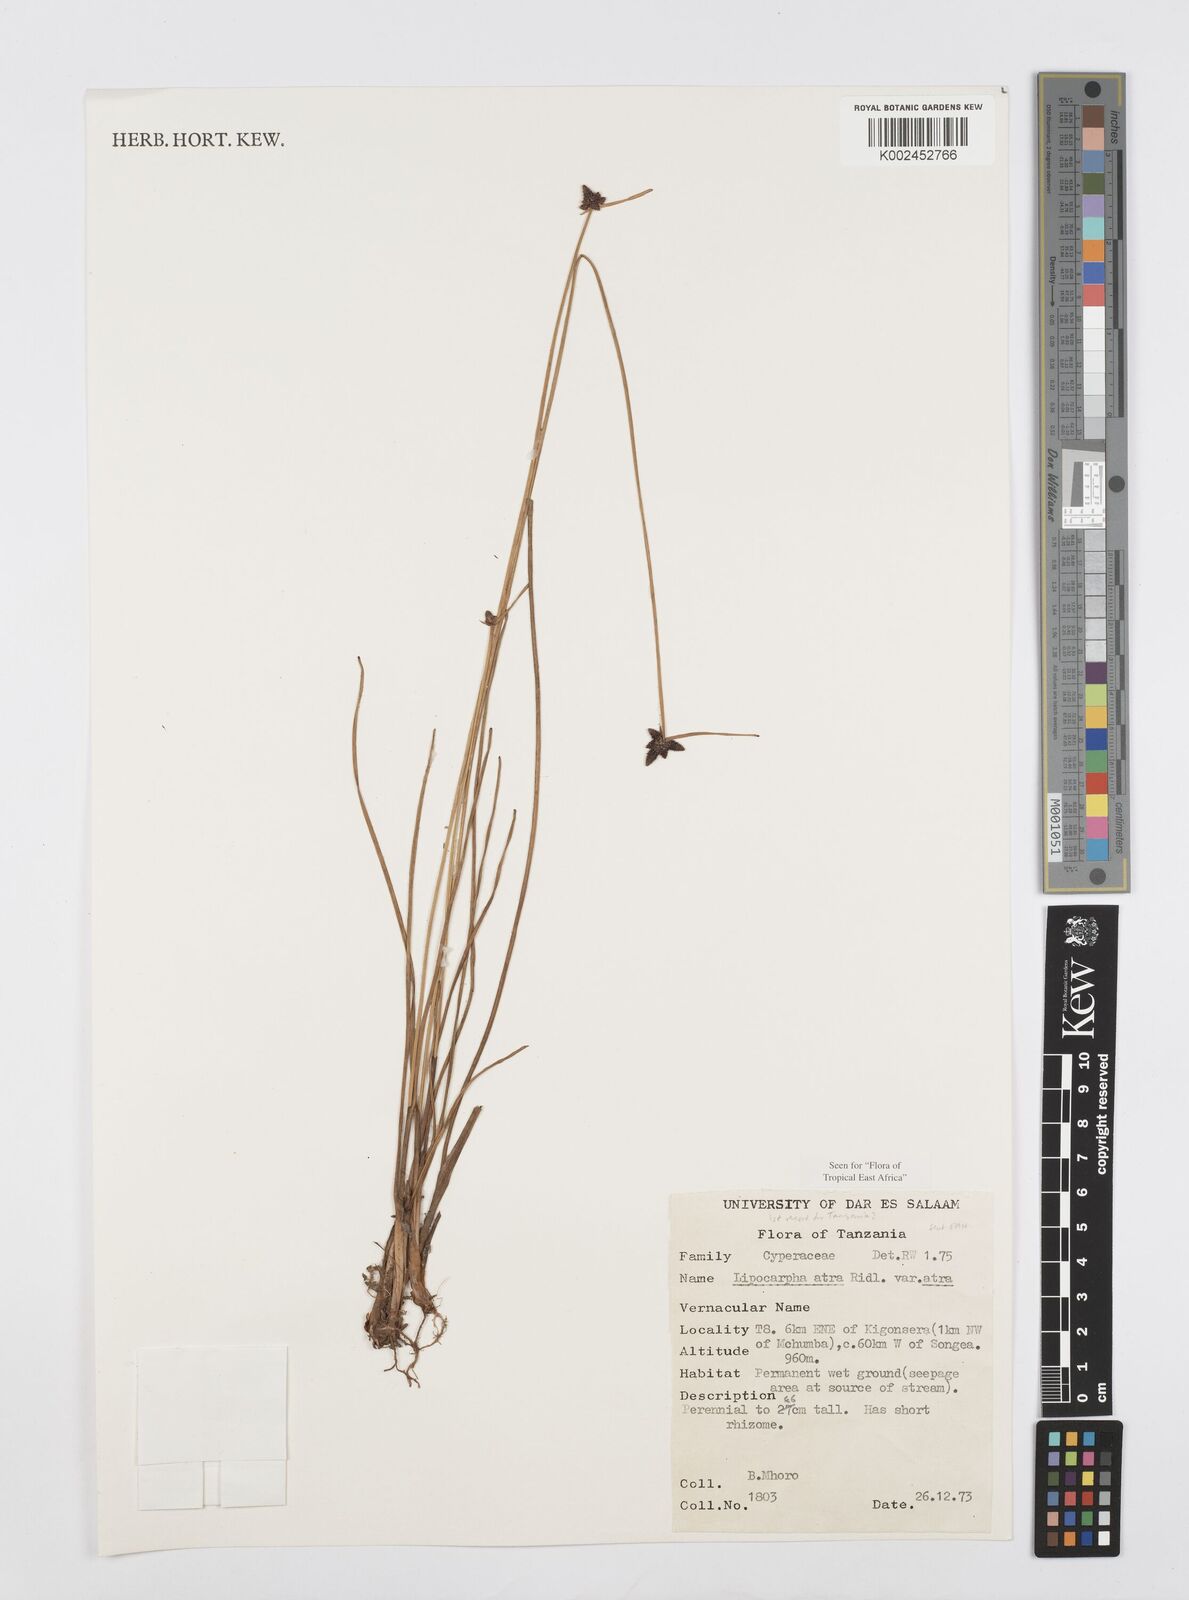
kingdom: Plantae
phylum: Tracheophyta
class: Liliopsida
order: Poales
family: Cyperaceae
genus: Cyperus
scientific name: Cyperus lipoater
